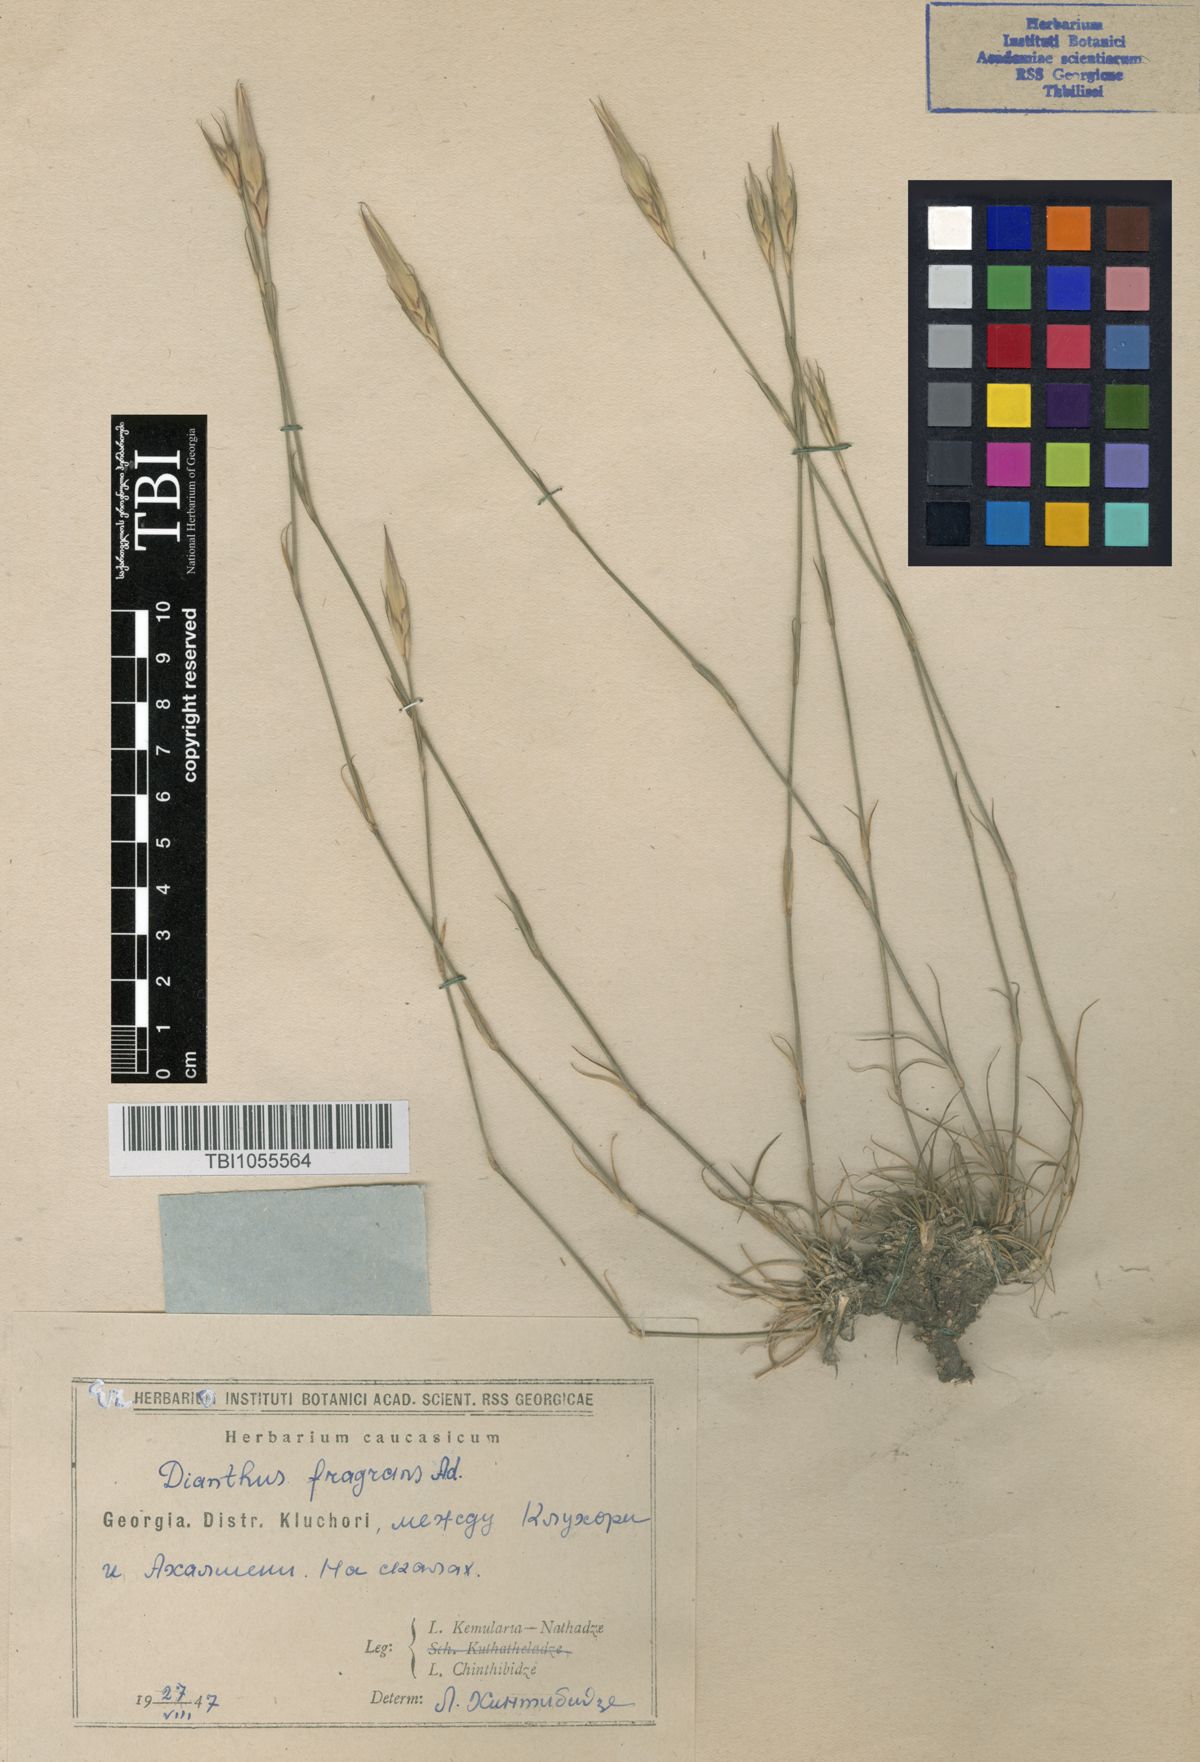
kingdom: Plantae
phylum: Tracheophyta
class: Magnoliopsida
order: Caryophyllales
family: Caryophyllaceae
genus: Dianthus
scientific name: Dianthus
